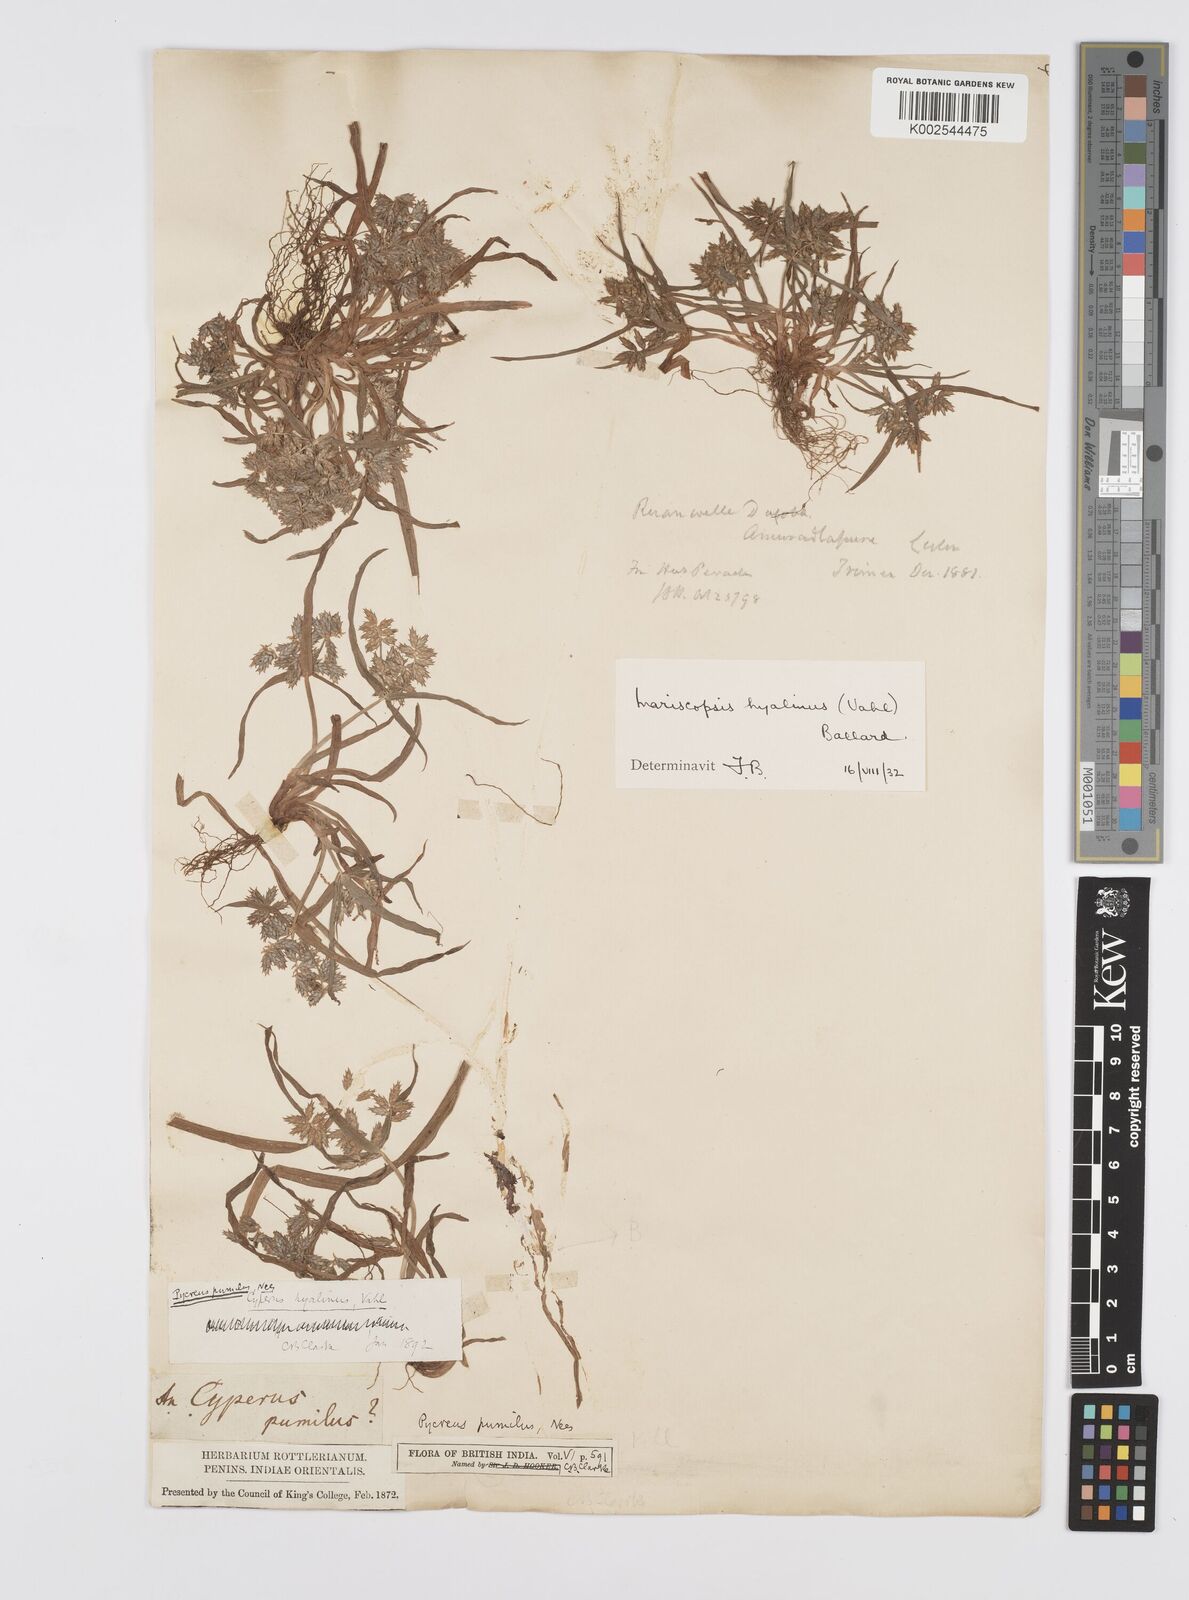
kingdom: Plantae
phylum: Tracheophyta
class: Liliopsida
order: Poales
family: Cyperaceae
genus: Cyperus
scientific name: Cyperus hyalinus
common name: Queensland sedge
